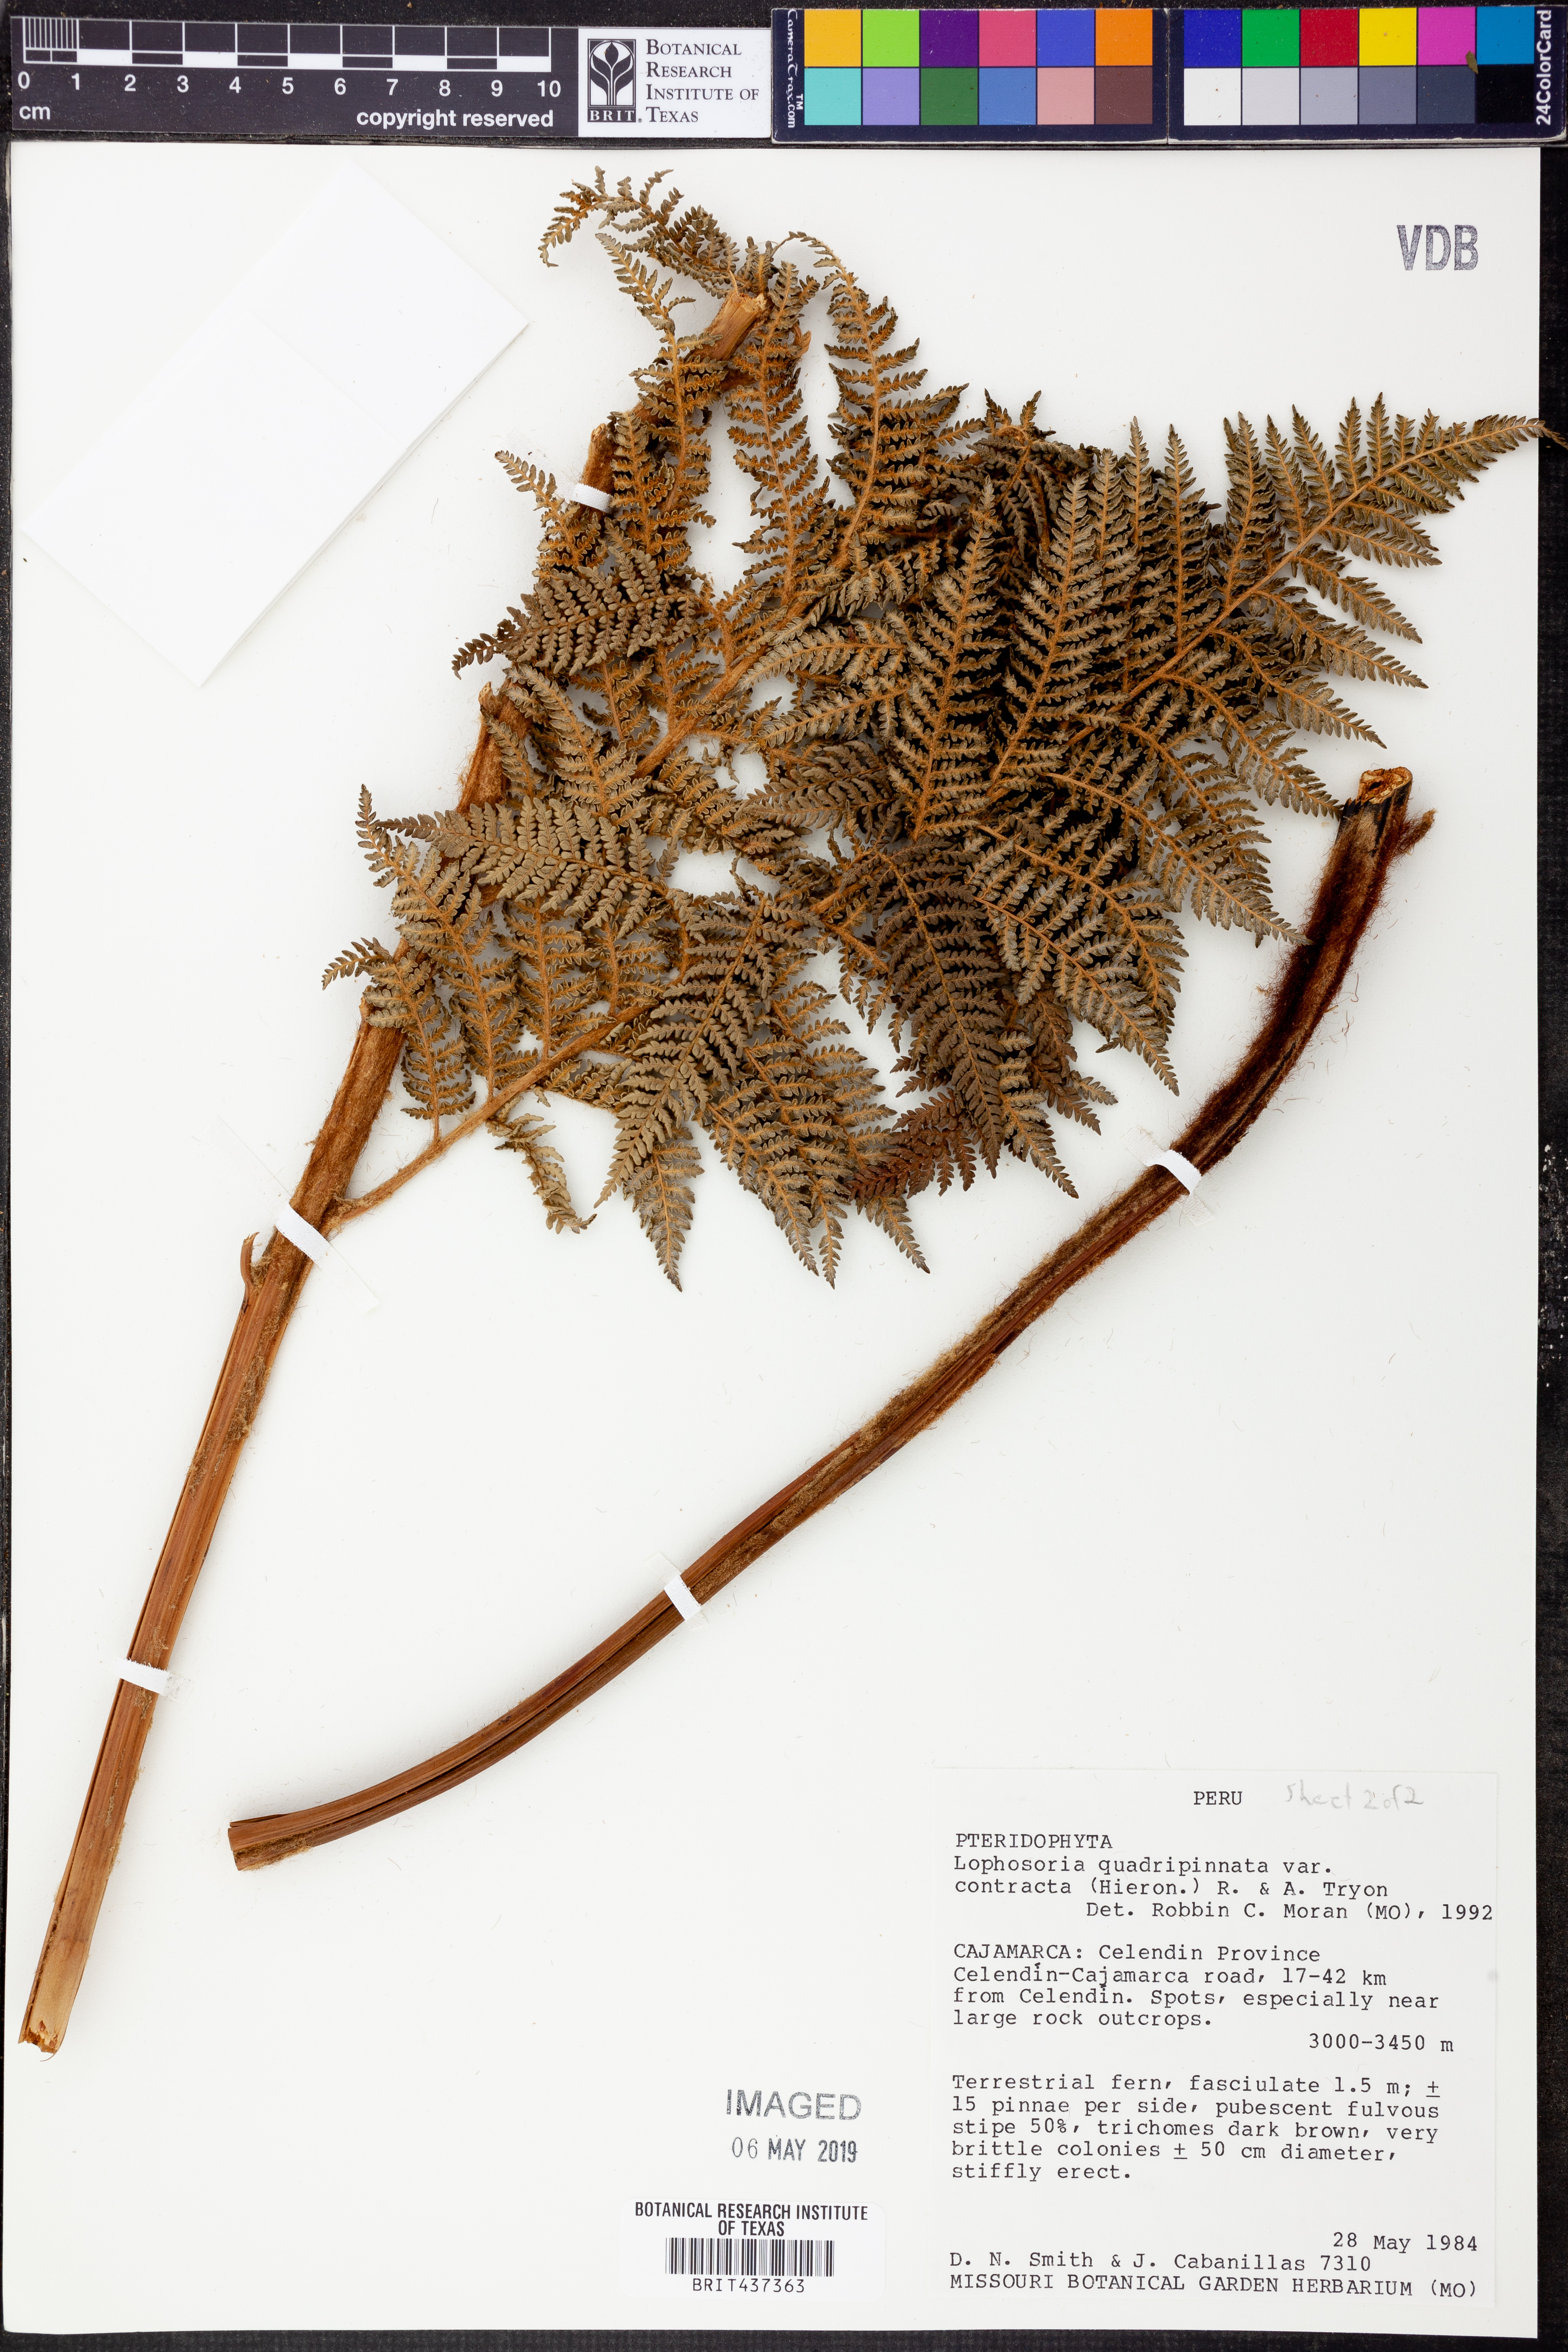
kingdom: Plantae
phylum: Tracheophyta
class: Polypodiopsida
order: Cyatheales
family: Dicksoniaceae
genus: Lophosoria
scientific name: Lophosoria quadripinnata
